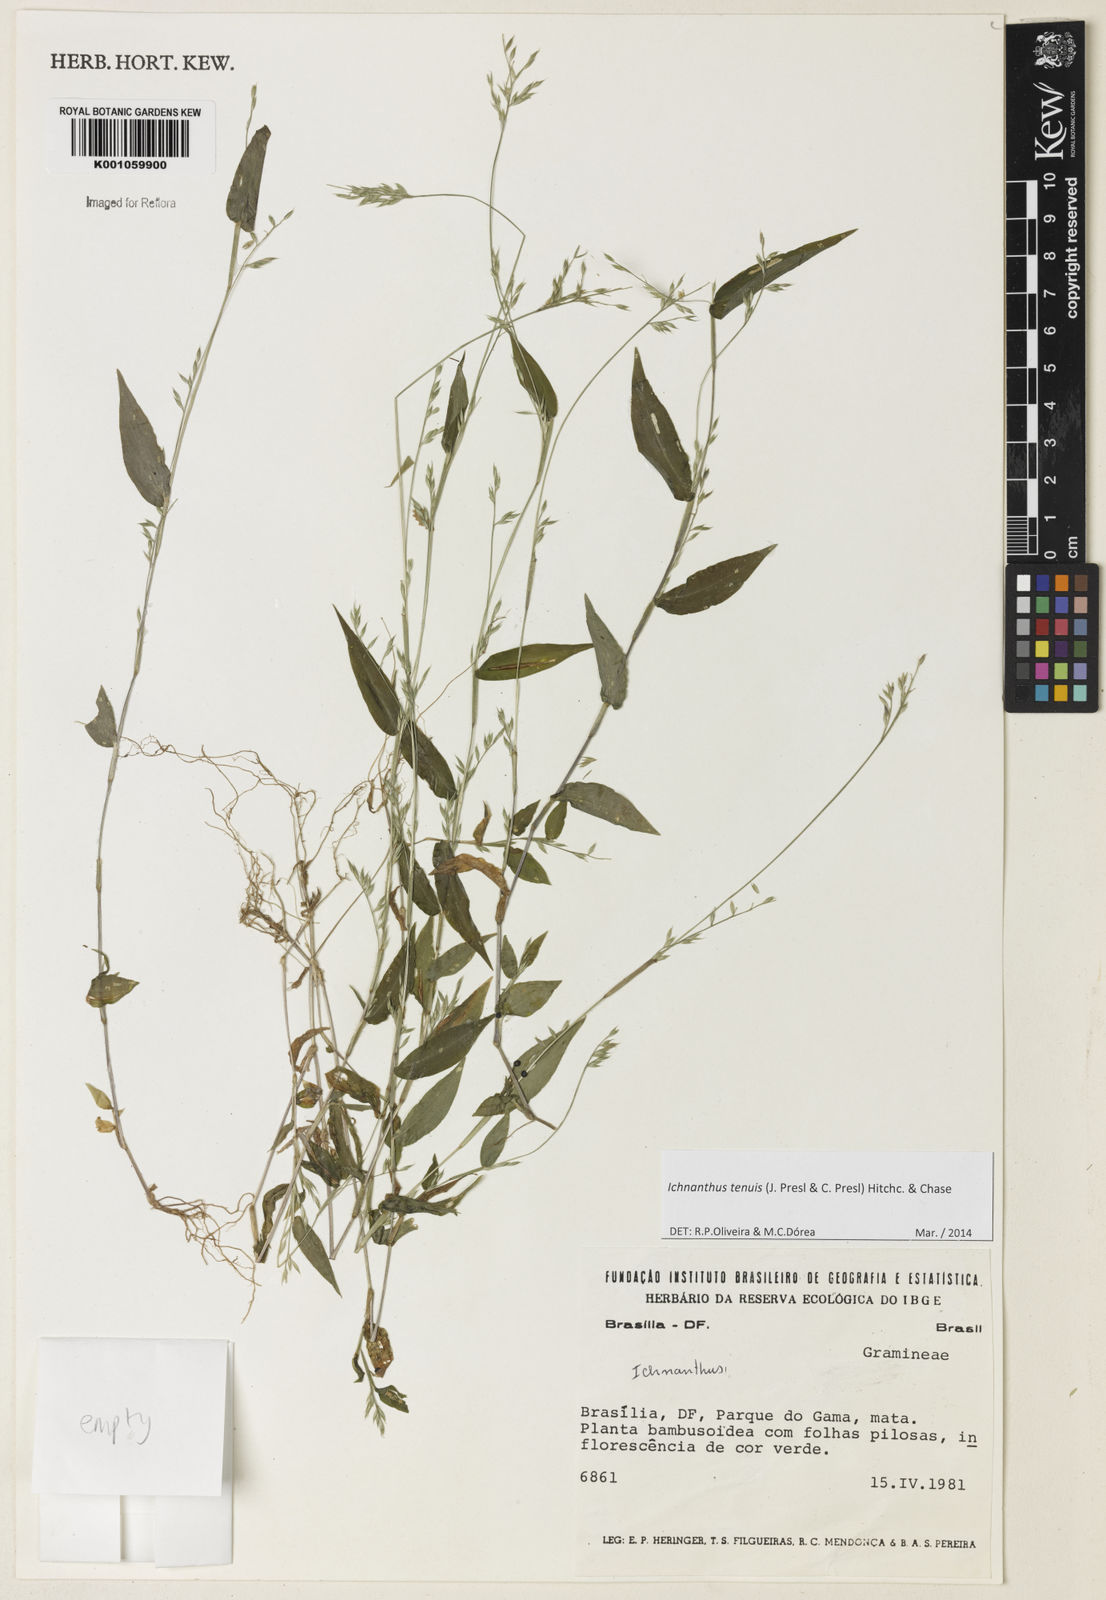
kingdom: Plantae
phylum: Tracheophyta
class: Liliopsida
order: Poales
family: Poaceae
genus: Ichnanthus
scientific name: Ichnanthus tenuis
